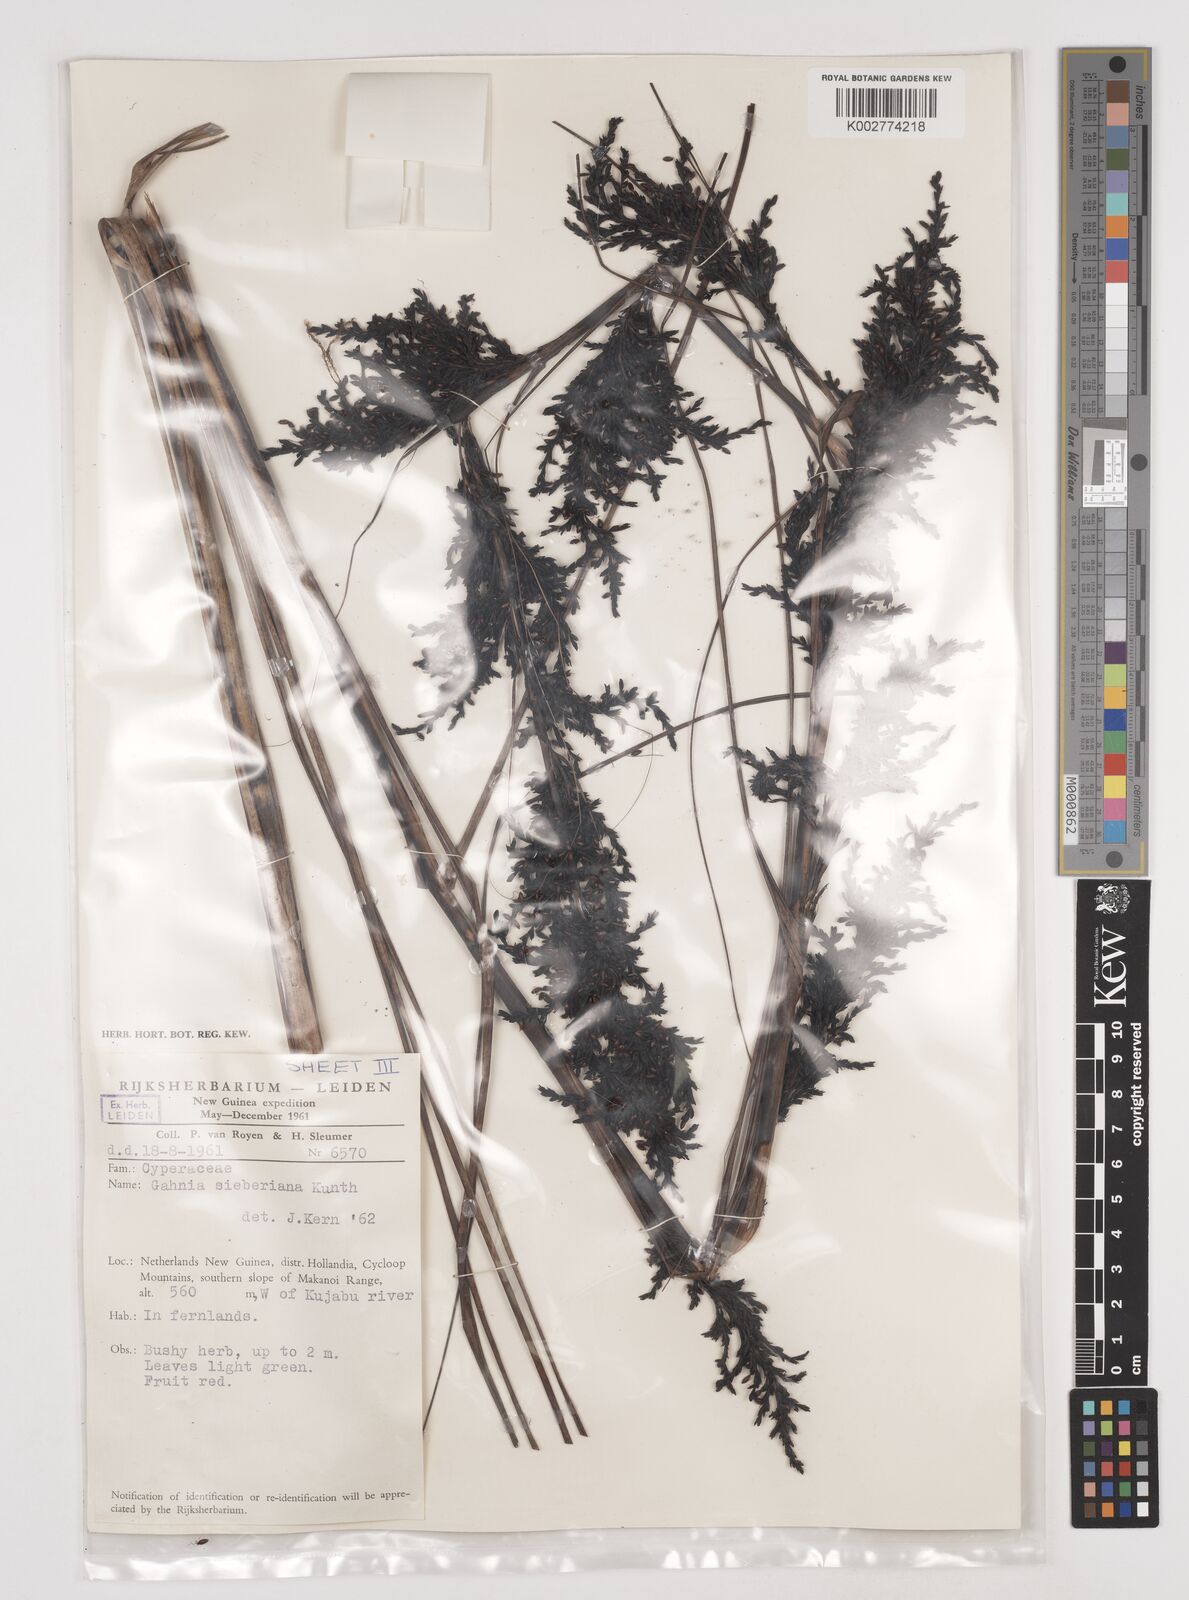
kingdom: Plantae
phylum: Tracheophyta
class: Liliopsida
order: Poales
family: Cyperaceae
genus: Gahnia
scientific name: Gahnia sieberiana
